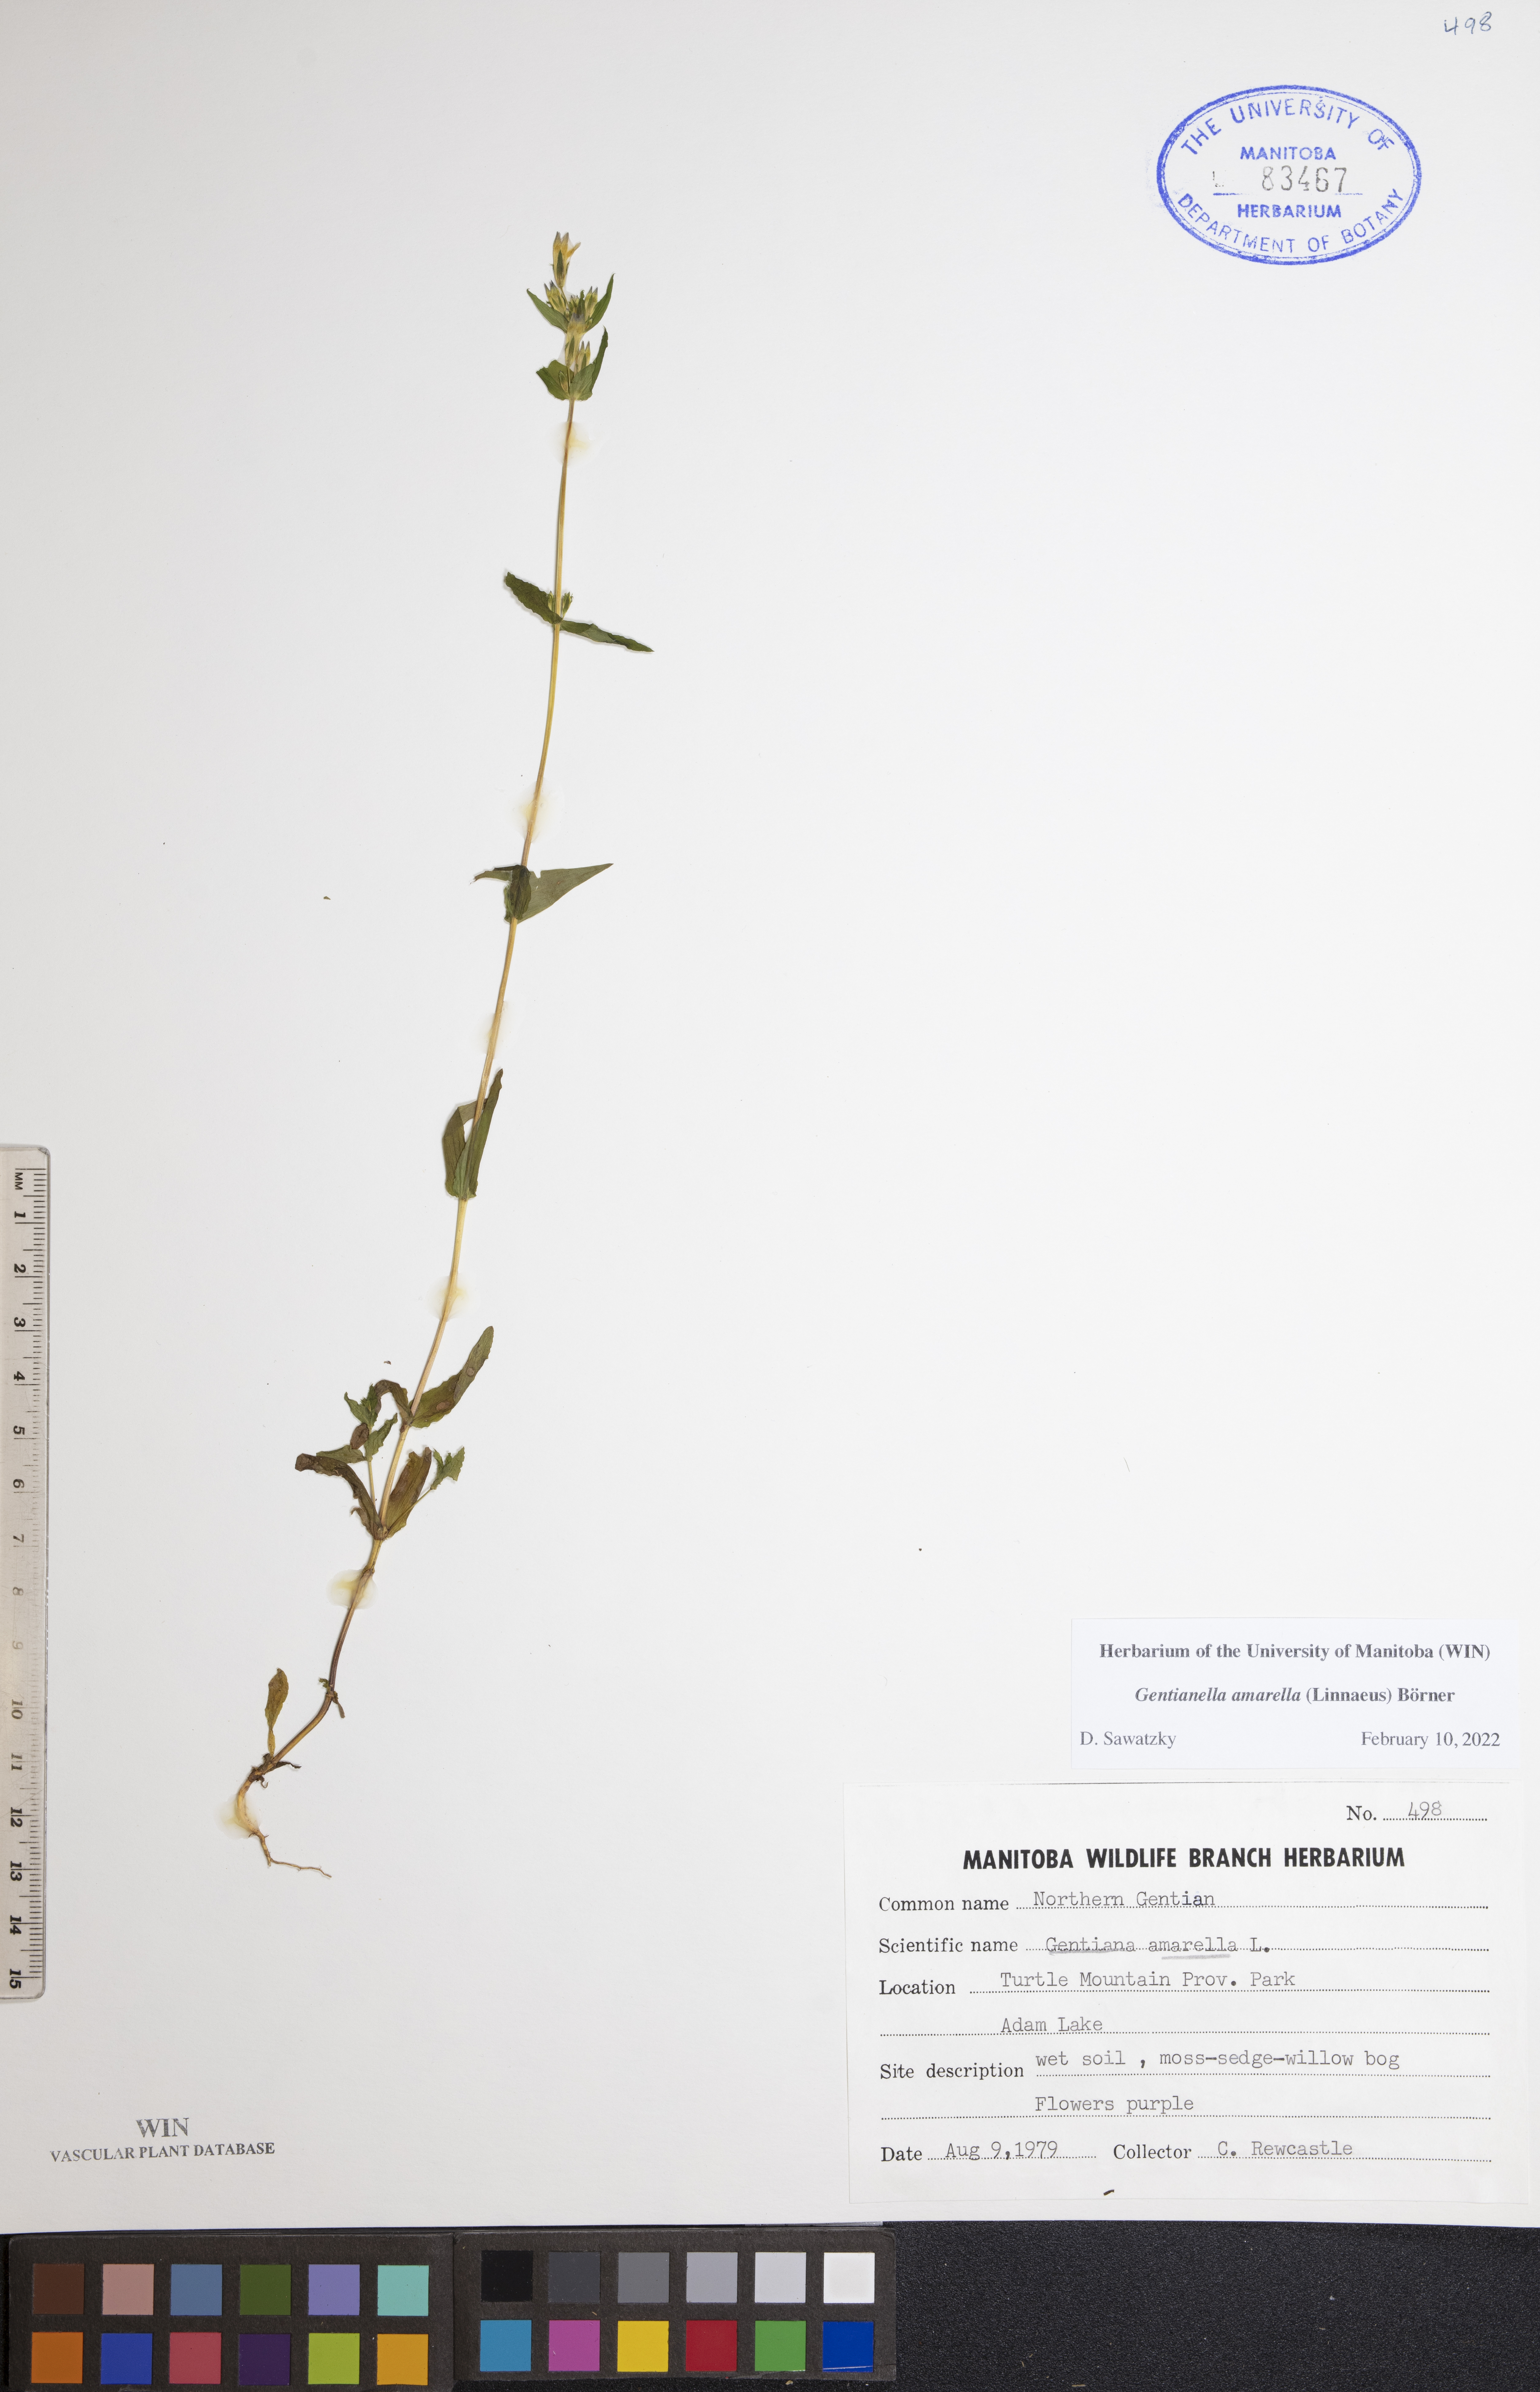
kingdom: Plantae
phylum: Tracheophyta
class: Magnoliopsida
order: Gentianales
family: Gentianaceae
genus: Gentianella
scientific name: Gentianella amarella
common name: Autumn gentian
